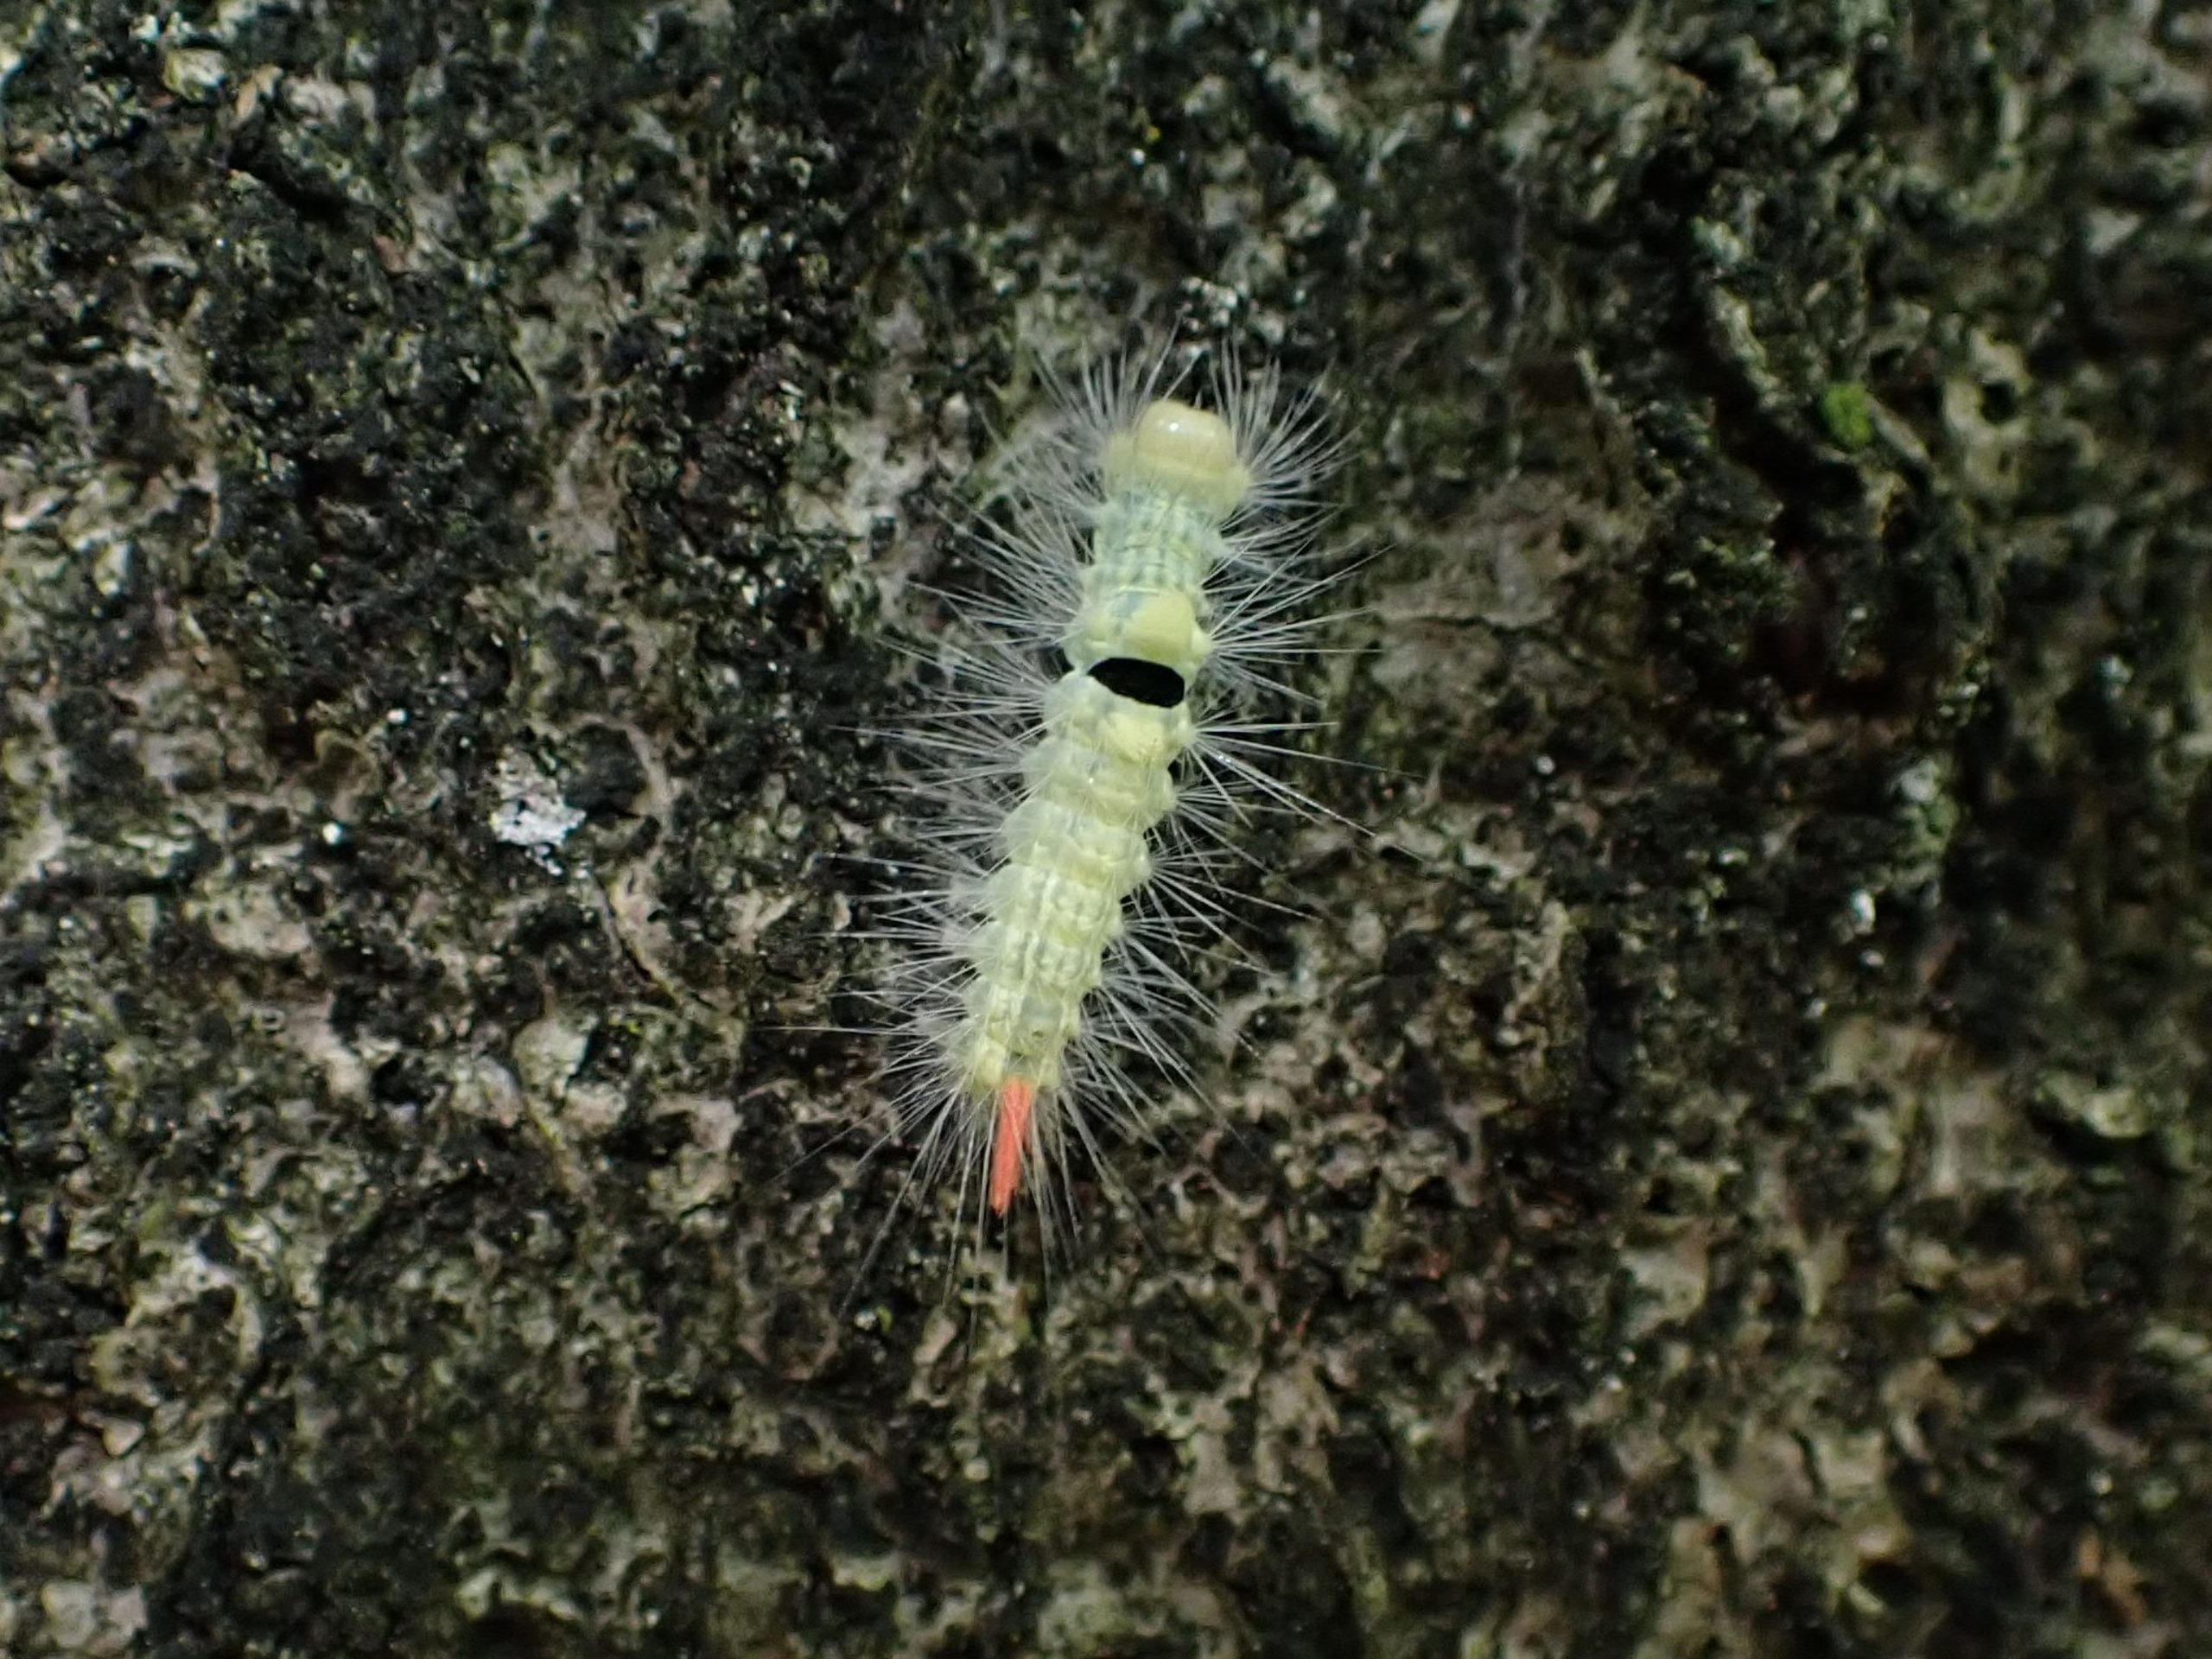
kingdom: Animalia
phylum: Arthropoda
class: Insecta
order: Lepidoptera
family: Erebidae
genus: Calliteara
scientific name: Calliteara pudibunda
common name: Bøgenonne
